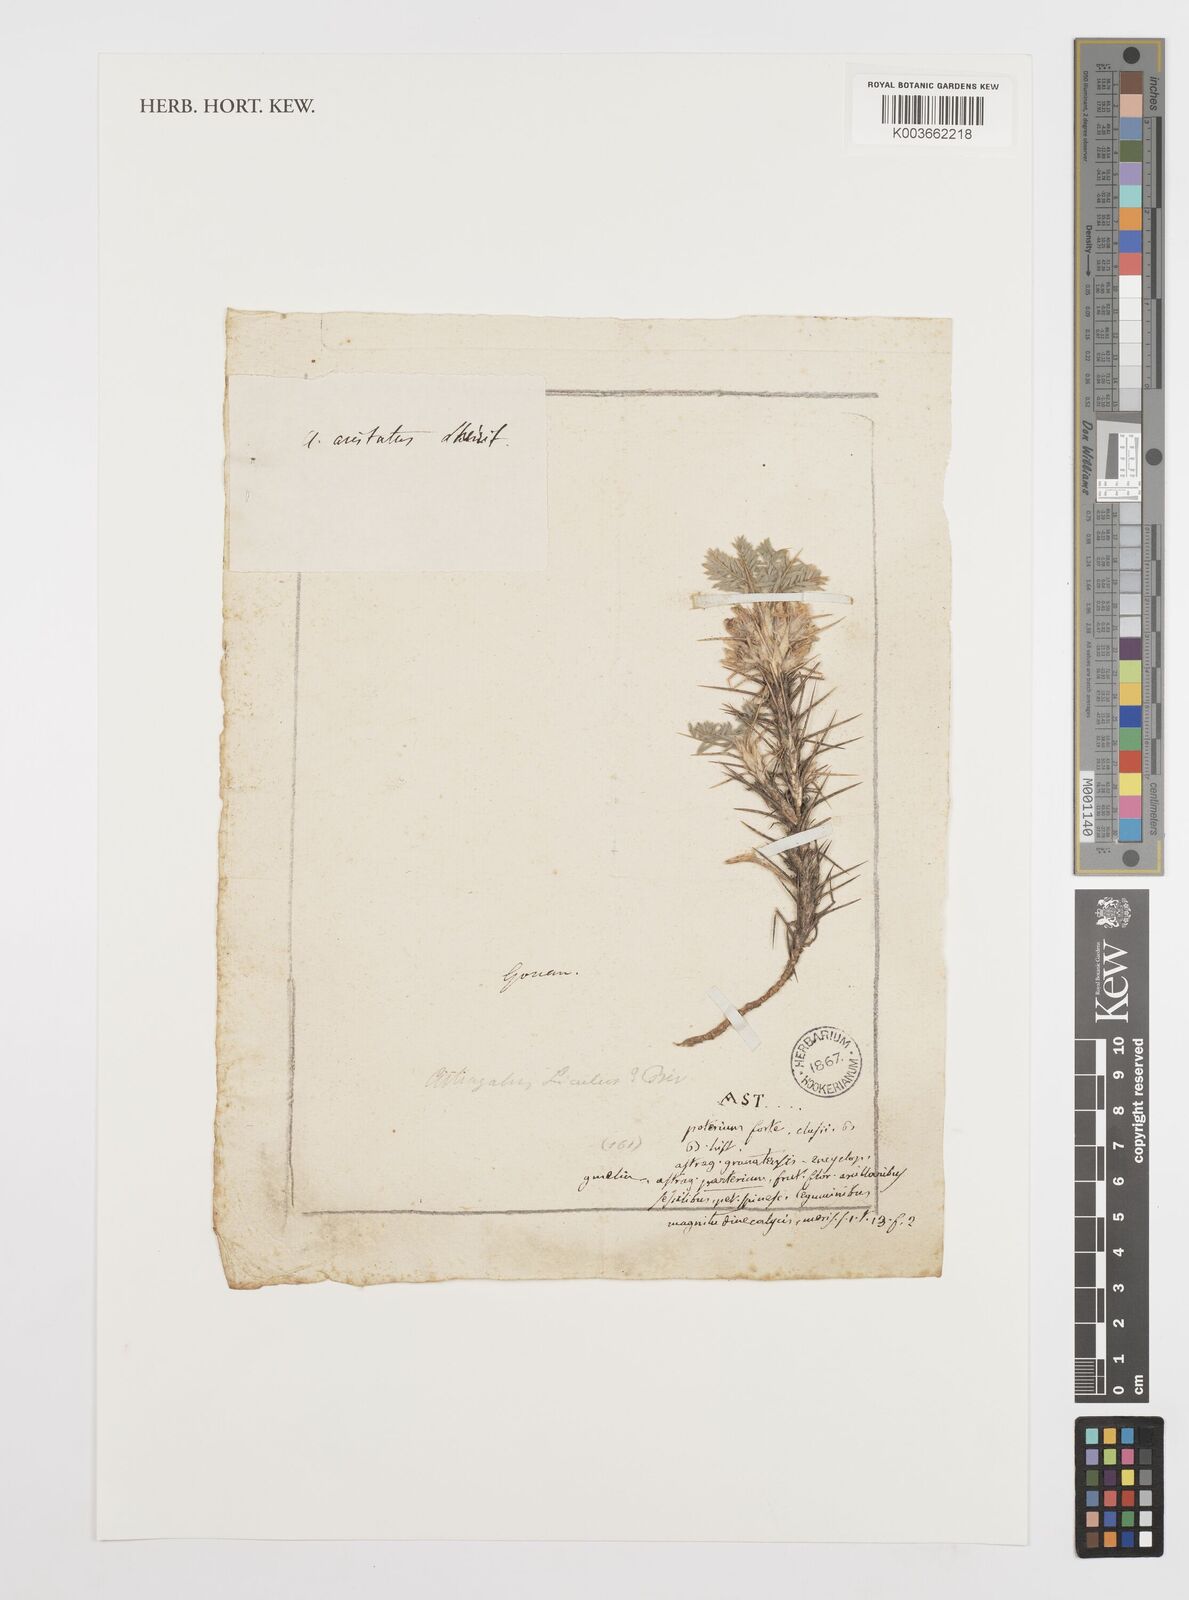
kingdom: Plantae
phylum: Tracheophyta
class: Magnoliopsida
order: Fabales
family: Fabaceae
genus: Astragalus
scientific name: Astragalus parnassi
